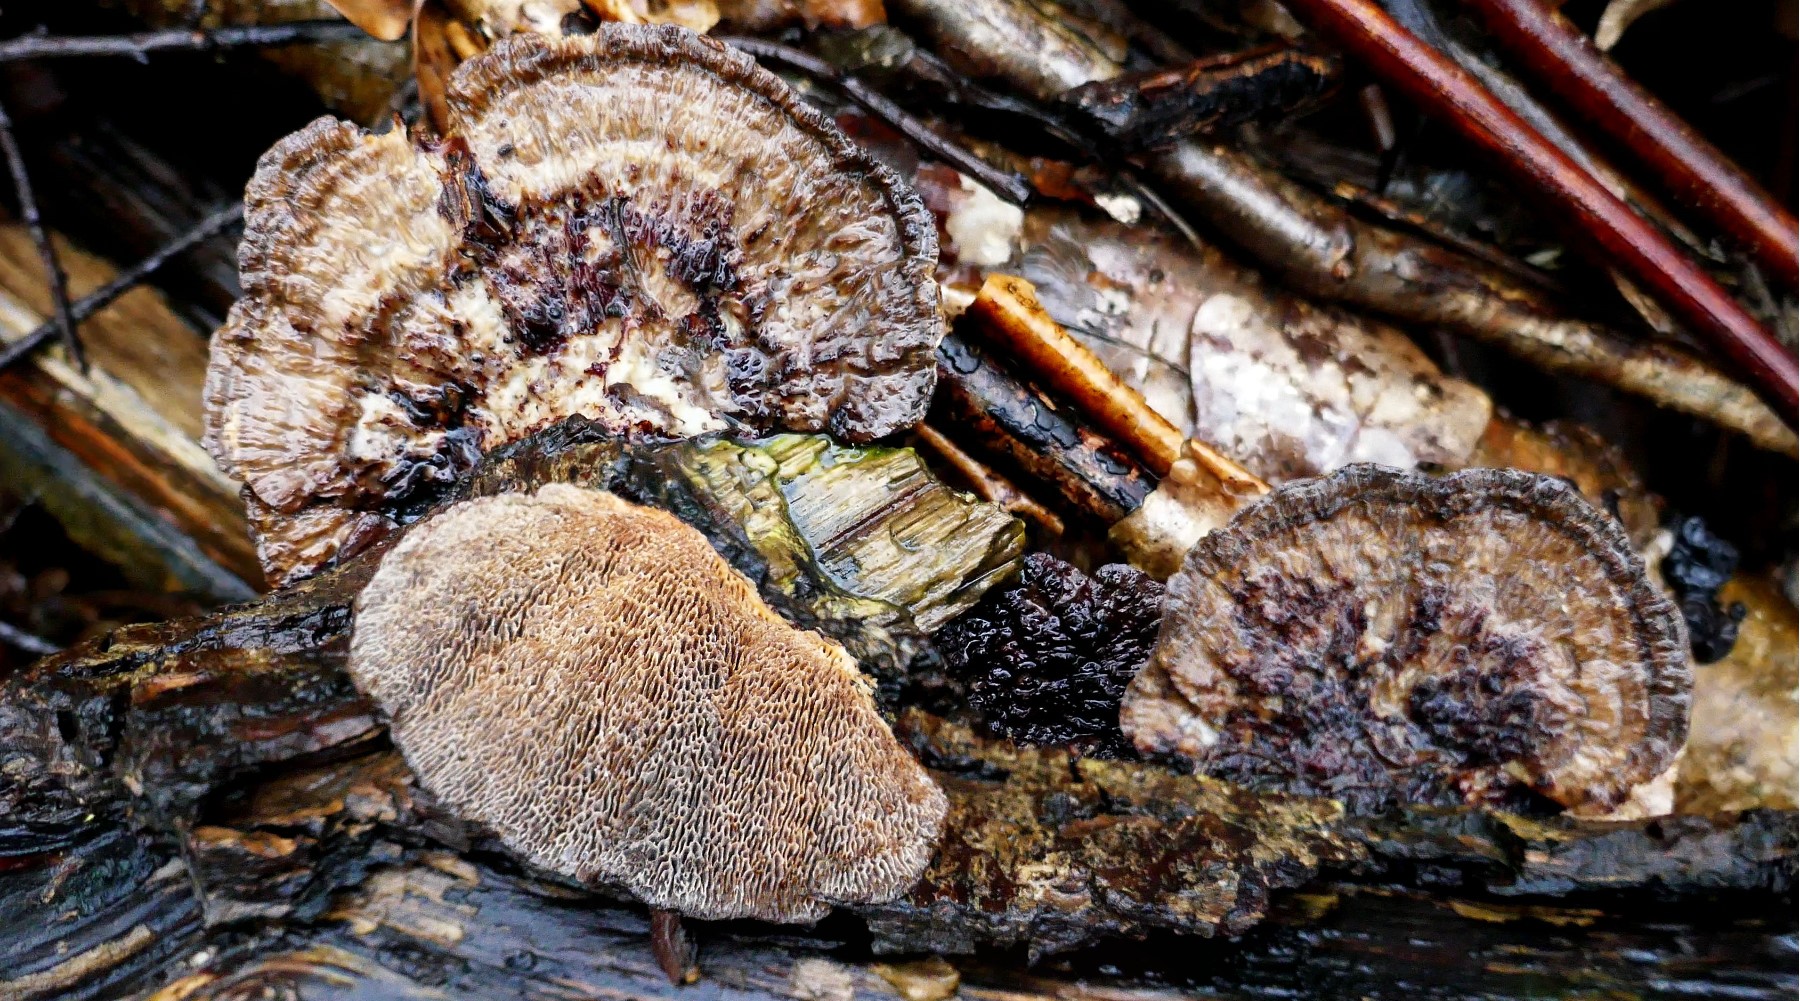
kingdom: Fungi
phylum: Basidiomycota
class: Agaricomycetes
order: Polyporales
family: Polyporaceae
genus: Daedaleopsis
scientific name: Daedaleopsis confragosa
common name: rødmende læderporesvamp
